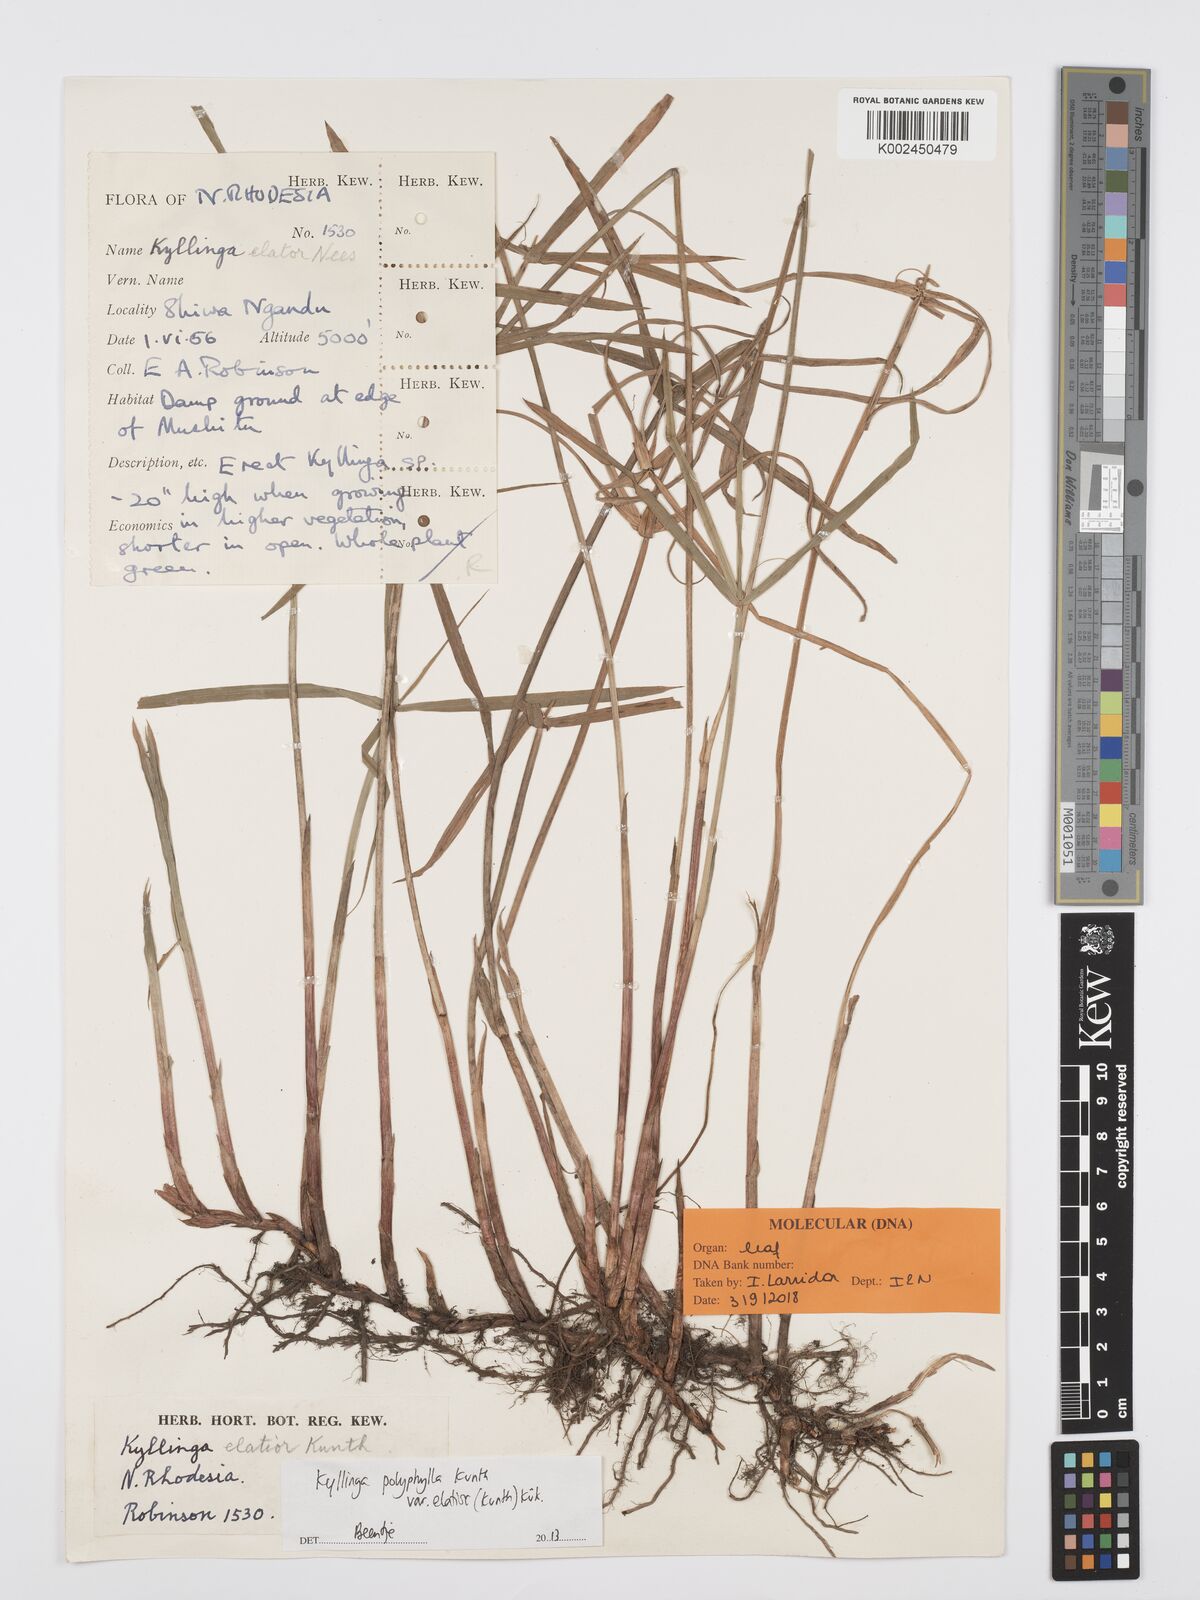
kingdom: Plantae
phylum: Tracheophyta
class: Liliopsida
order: Poales
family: Cyperaceae
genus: Cyperus
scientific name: Cyperus bulbosus
